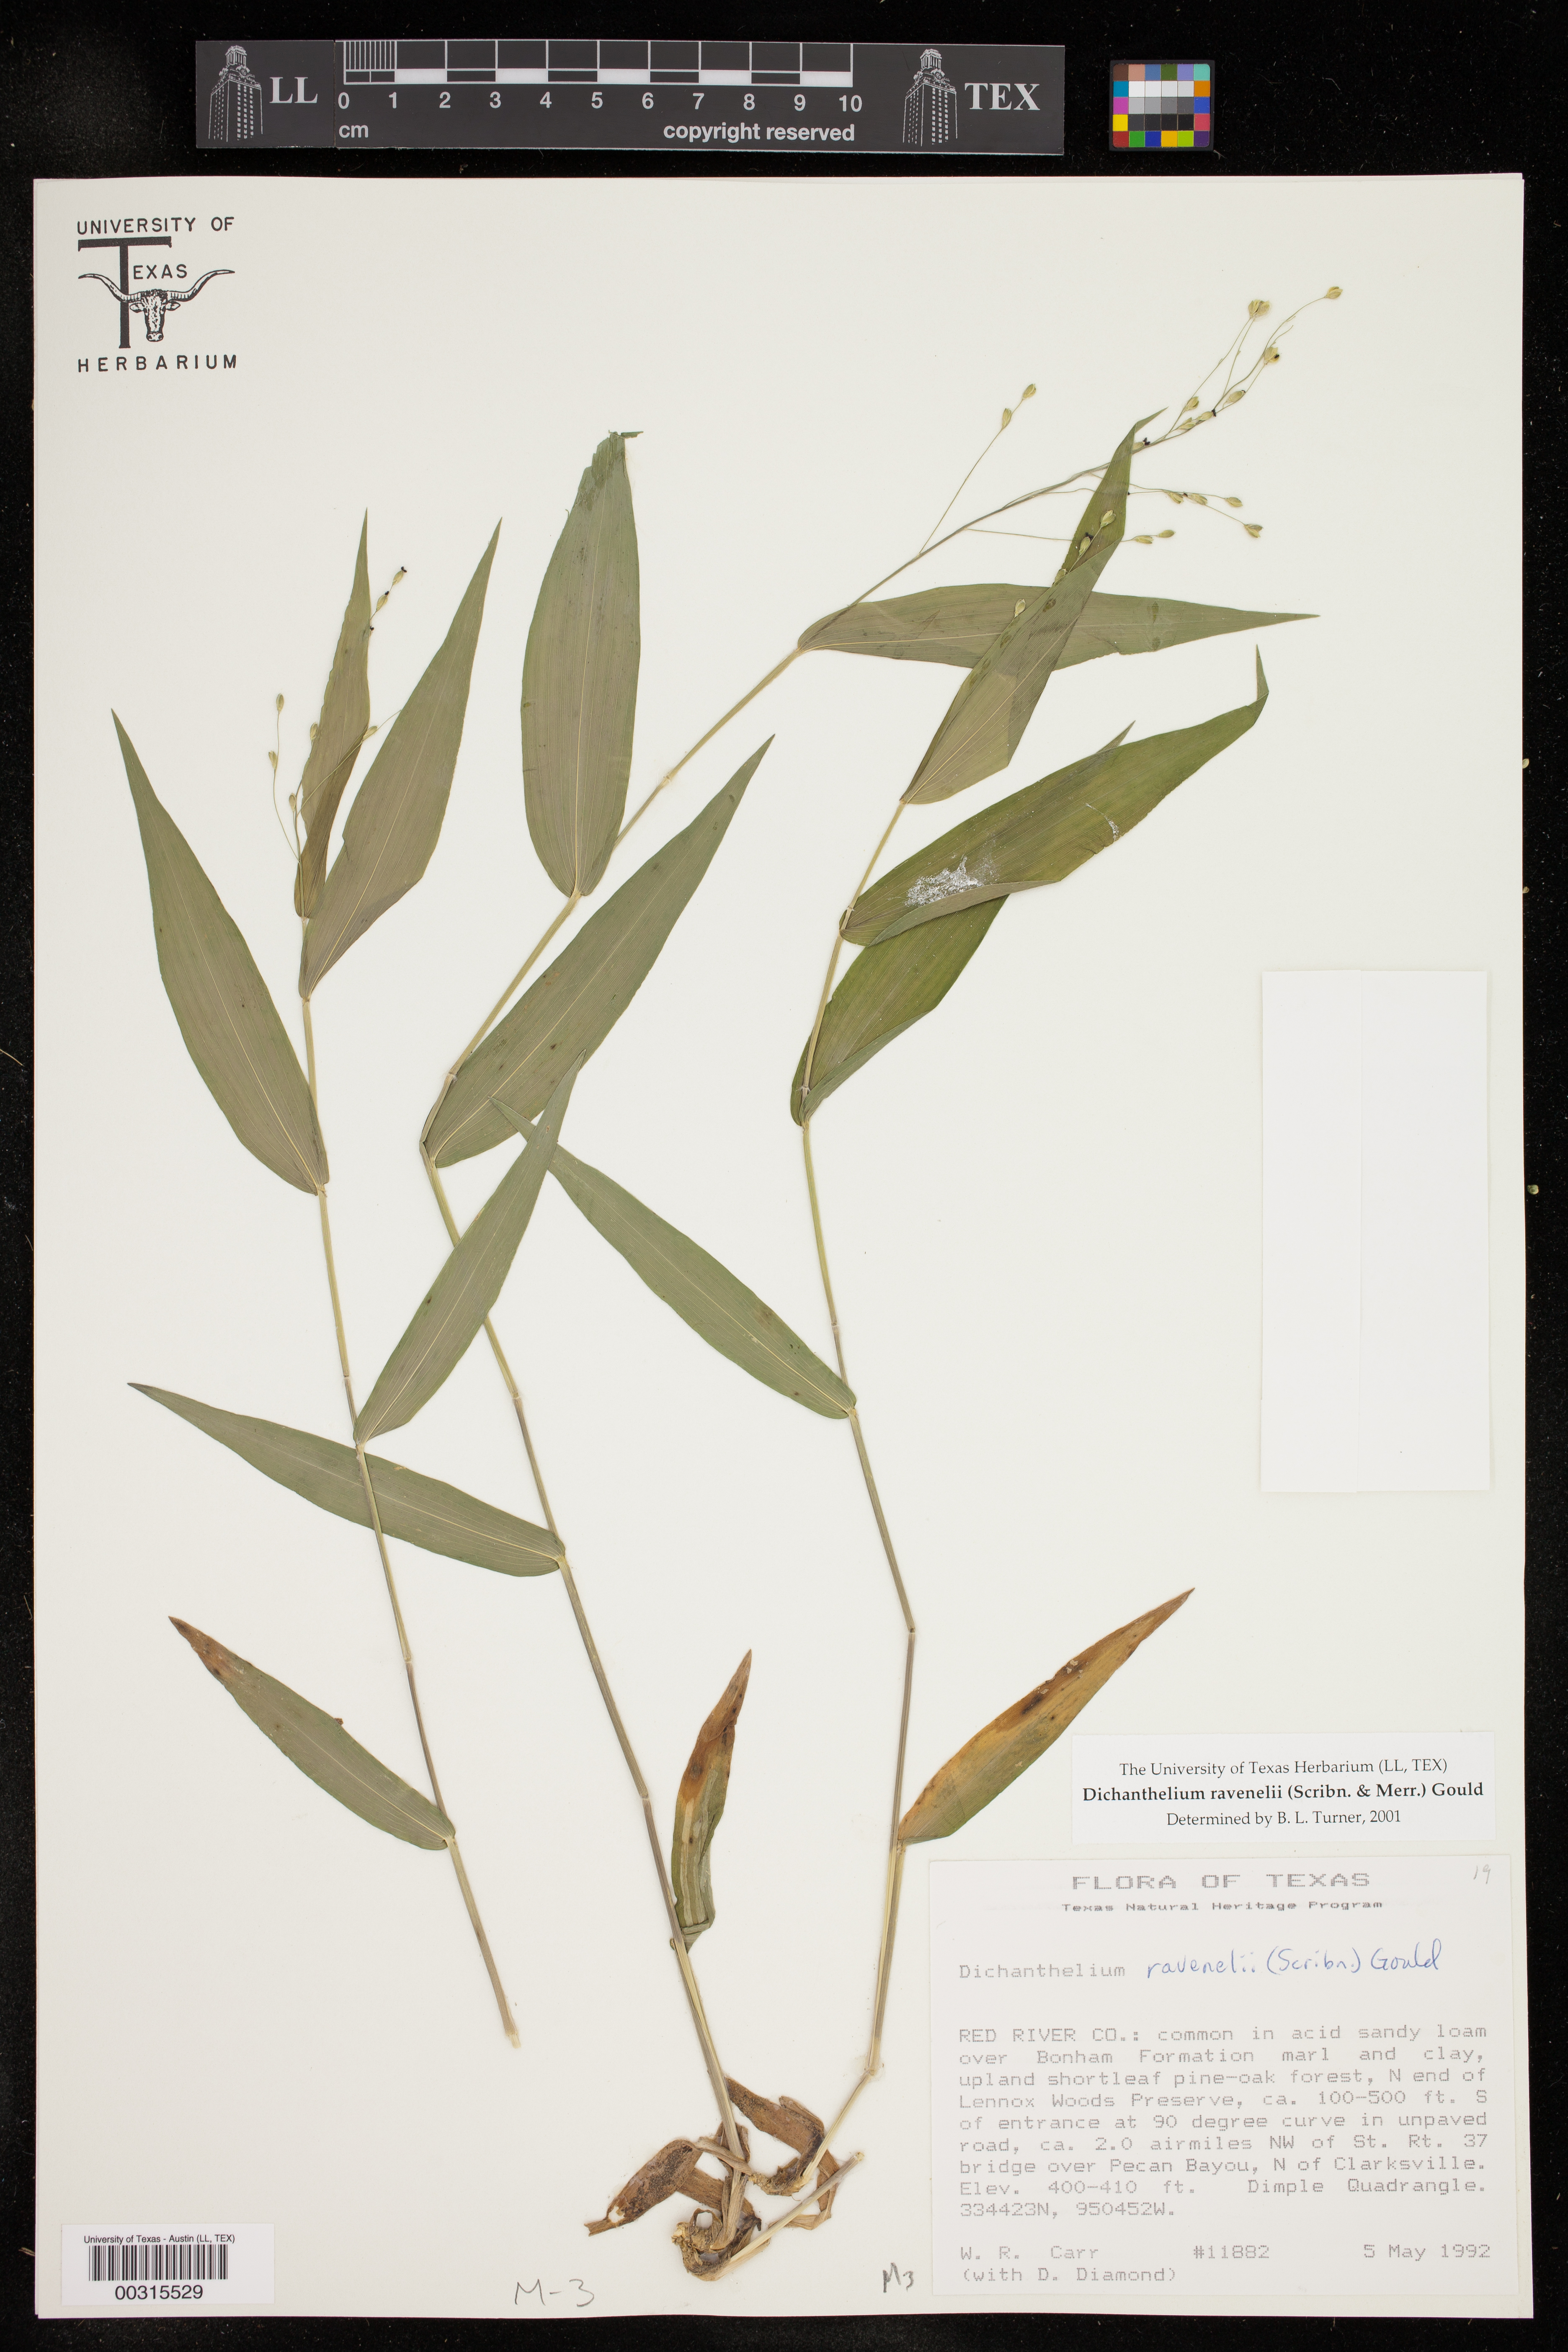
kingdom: Plantae
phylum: Tracheophyta
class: Liliopsida
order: Poales
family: Poaceae
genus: Dichanthelium
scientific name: Dichanthelium ravenelii
